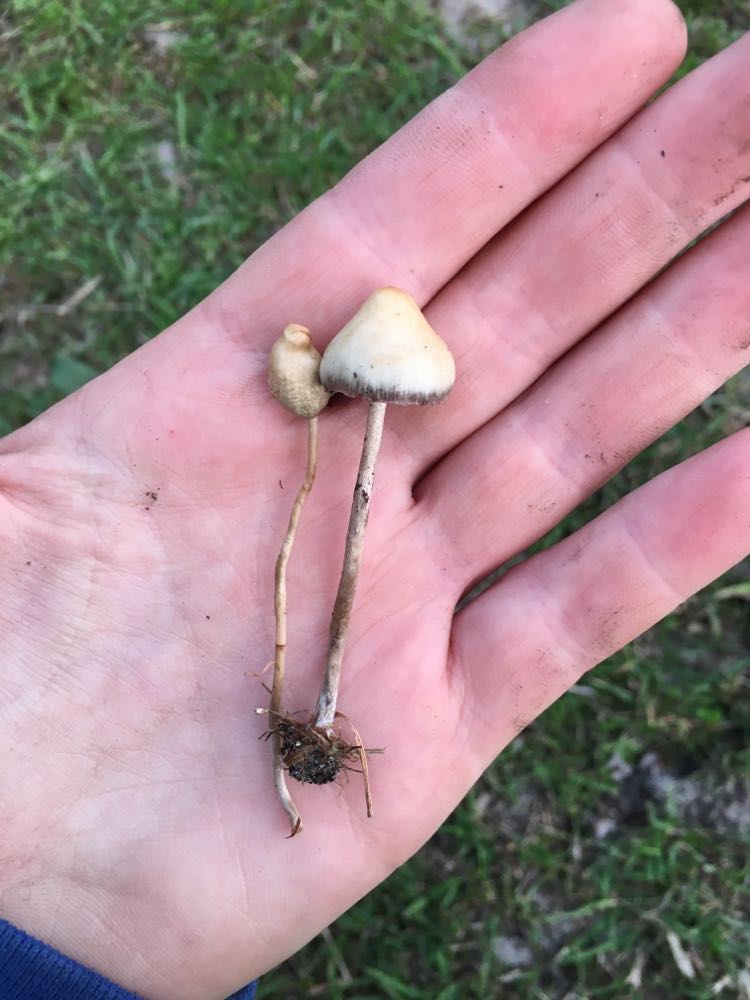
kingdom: Fungi
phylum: Basidiomycota
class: Agaricomycetes
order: Agaricales
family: Hymenogastraceae
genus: Psilocybe
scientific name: Psilocybe semilanceata
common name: spids nøgenhat
